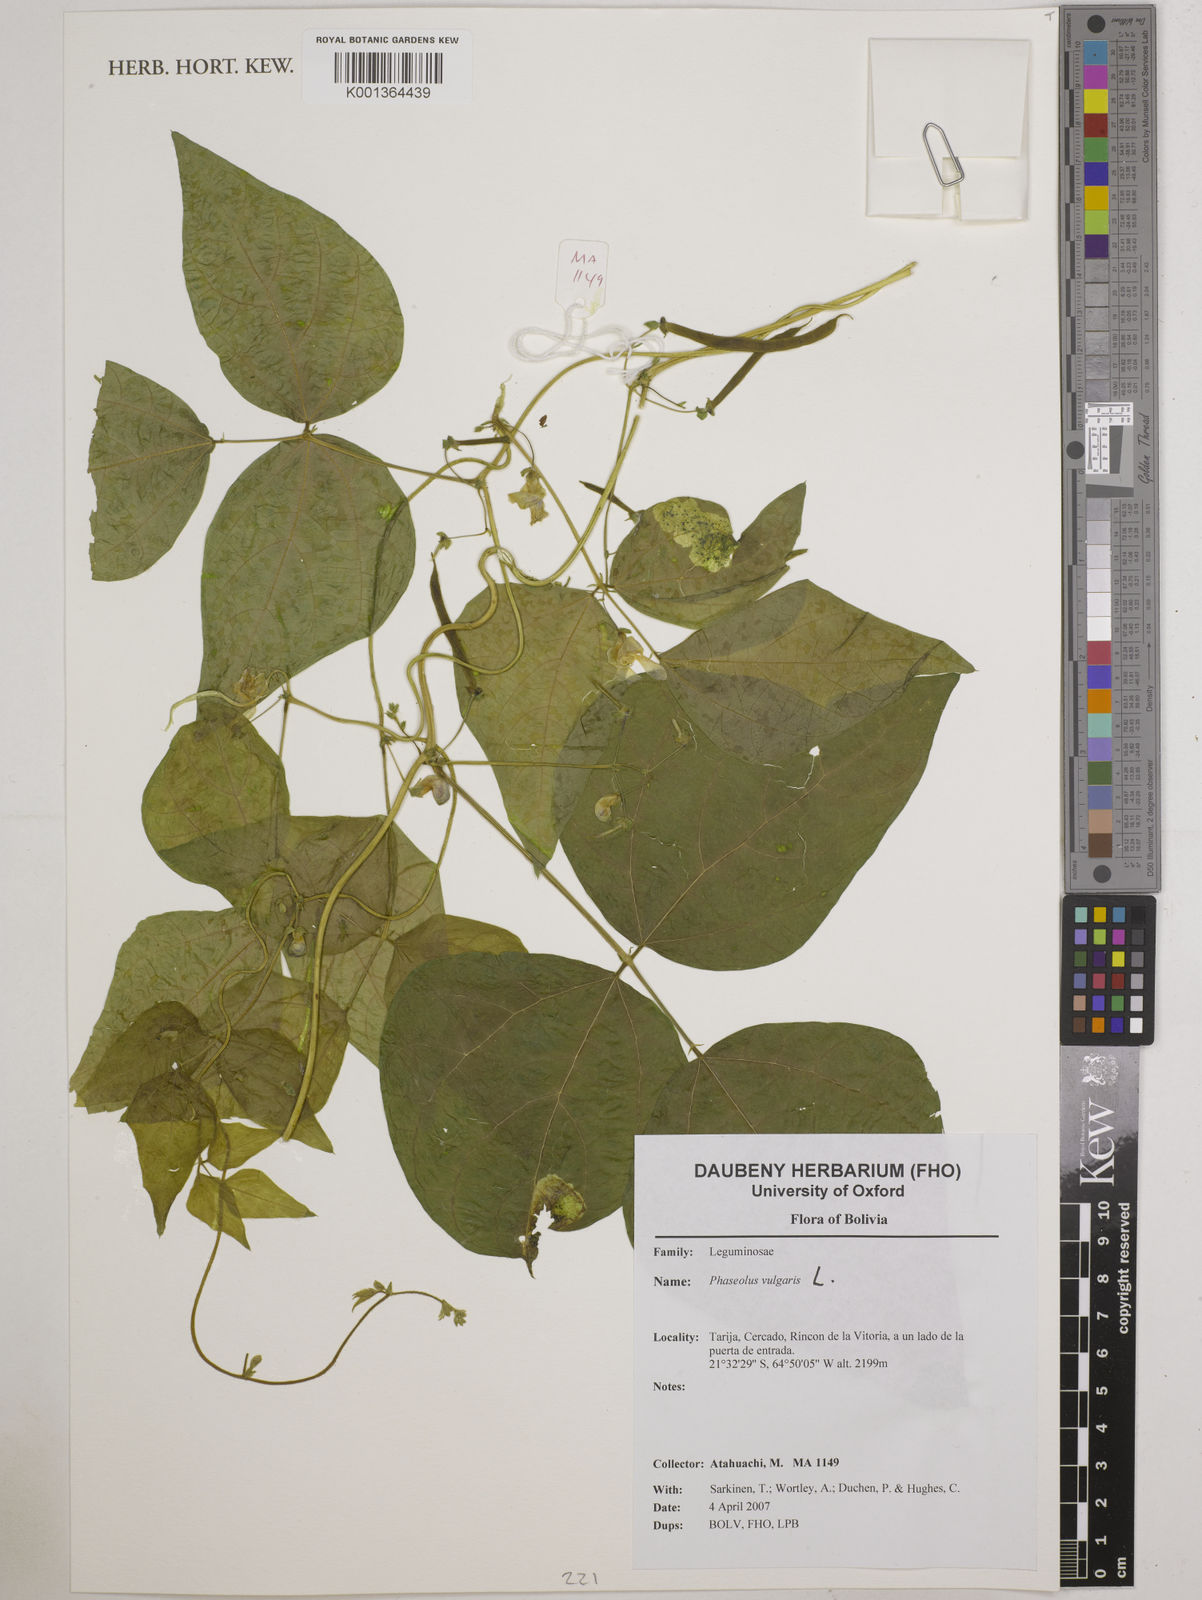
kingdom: Plantae
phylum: Tracheophyta
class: Magnoliopsida
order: Fabales
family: Fabaceae
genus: Phaseolus
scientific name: Phaseolus vulgaris
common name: Bean
